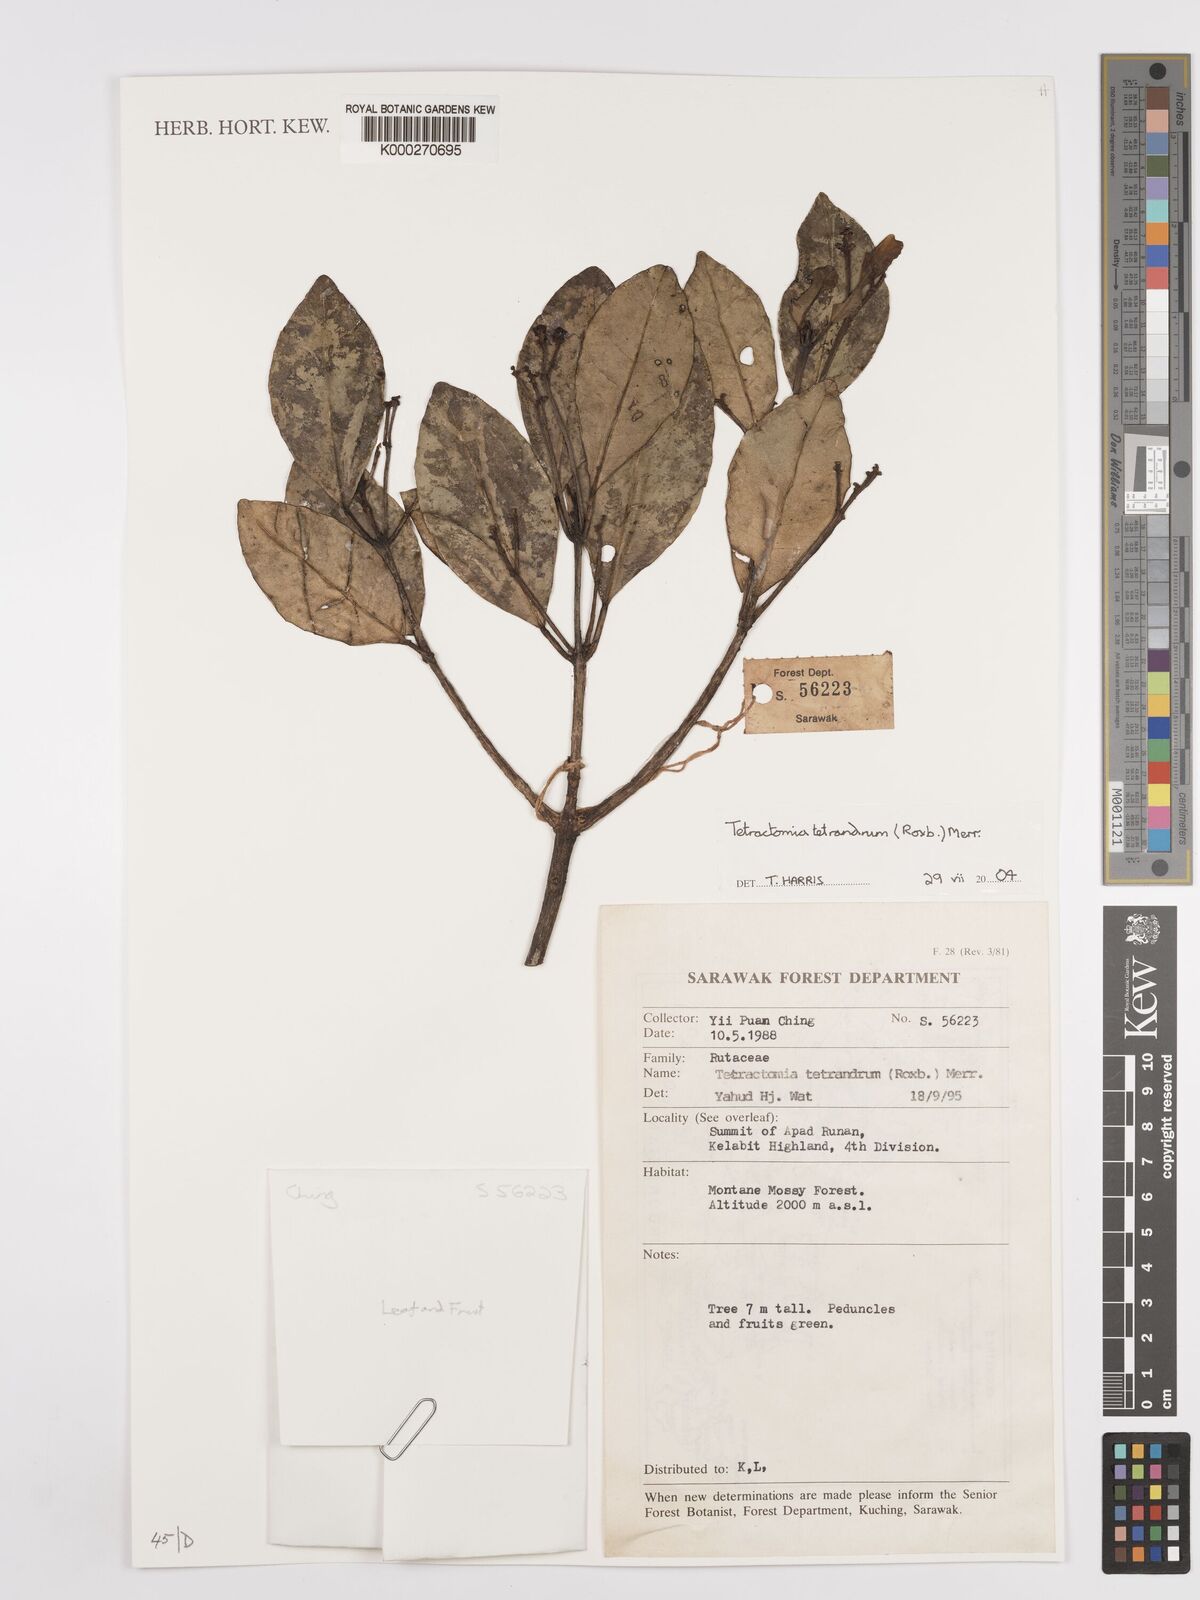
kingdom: Plantae
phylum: Tracheophyta
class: Magnoliopsida
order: Sapindales
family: Rutaceae
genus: Tetractomia
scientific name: Tetractomia tetrandra
